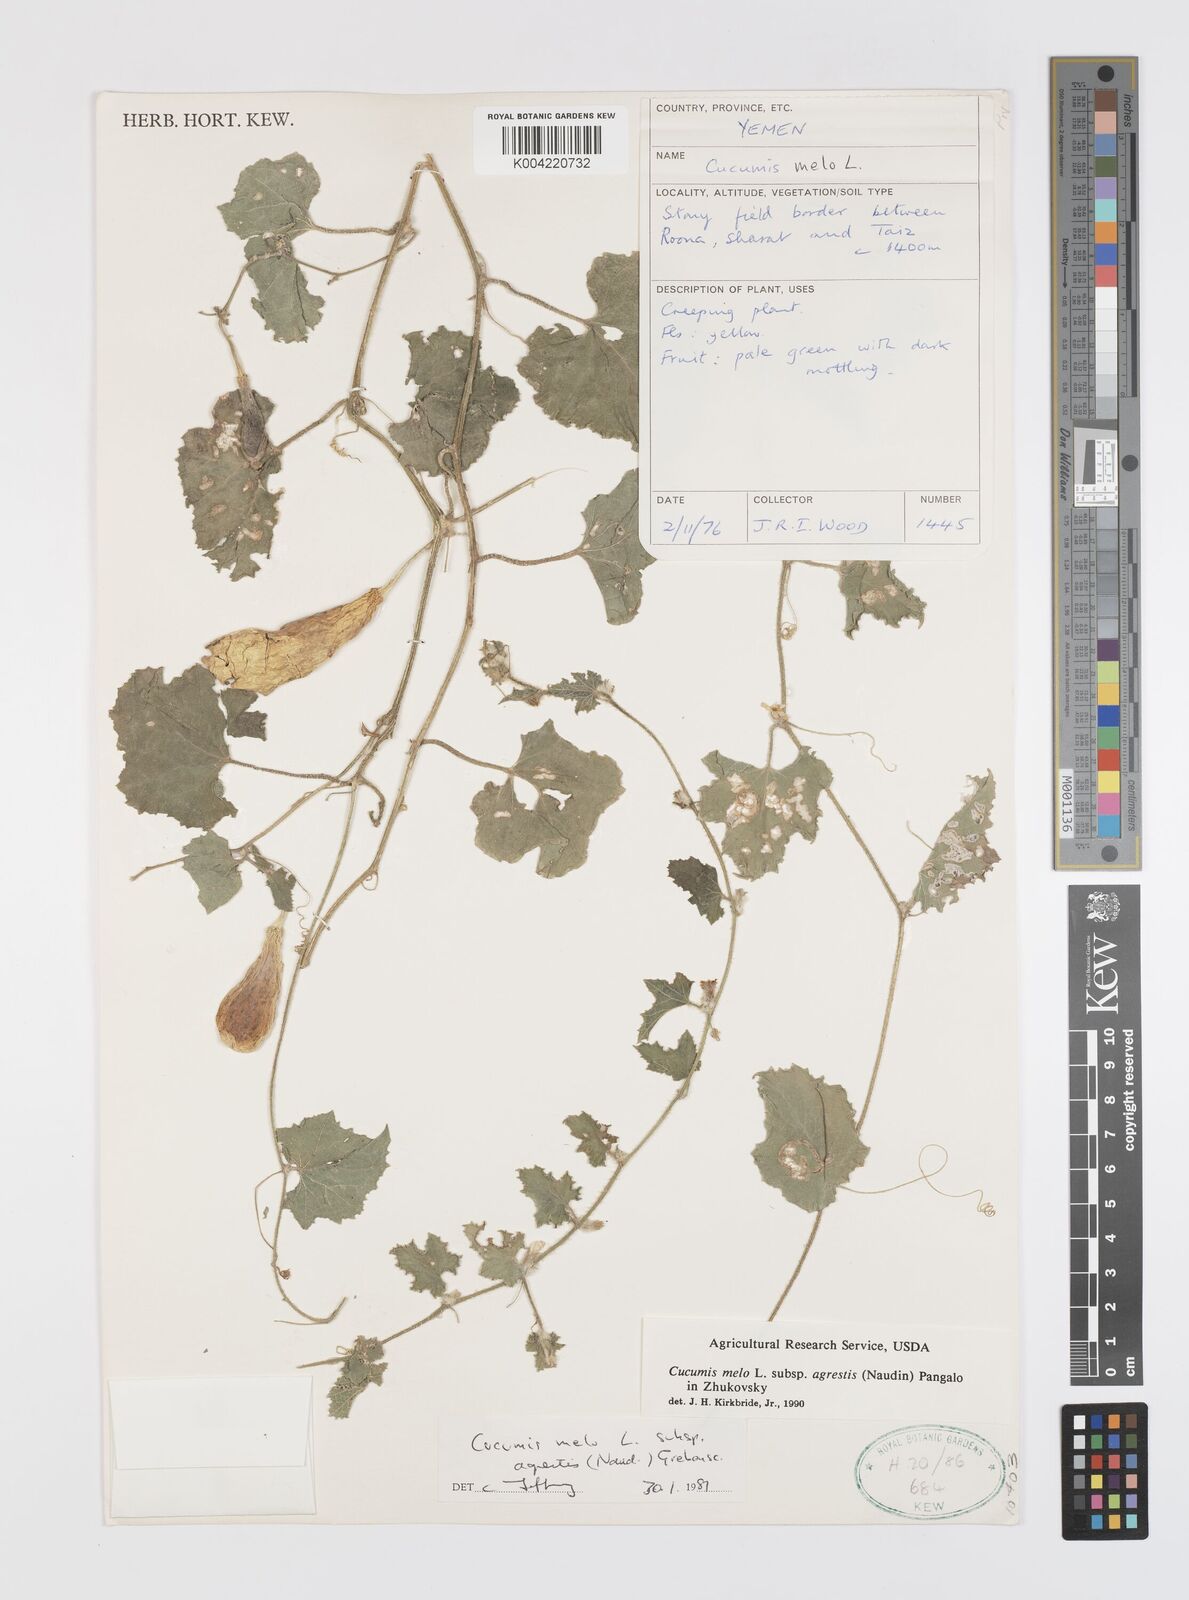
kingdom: Plantae
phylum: Tracheophyta
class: Magnoliopsida
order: Cucurbitales
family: Cucurbitaceae
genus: Cucumis
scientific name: Cucumis melo
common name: Melon
